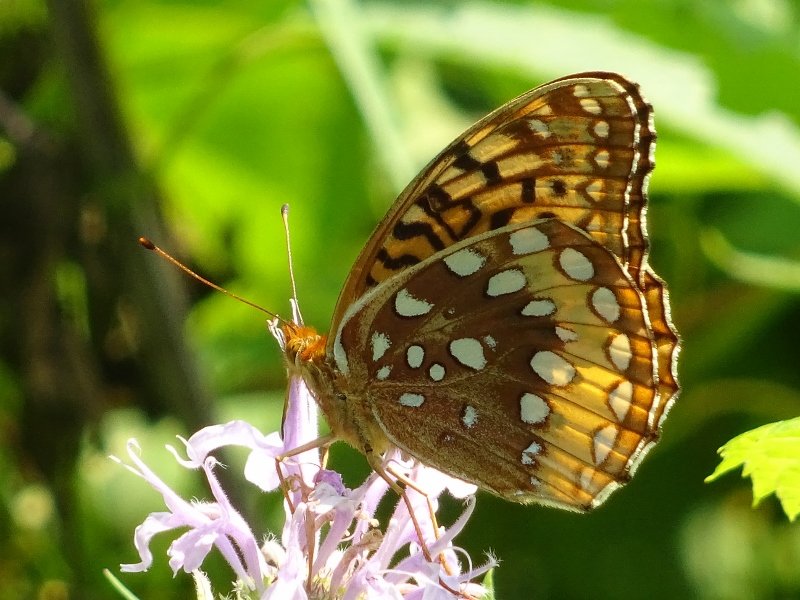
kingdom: Animalia
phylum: Arthropoda
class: Insecta
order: Lepidoptera
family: Nymphalidae
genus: Speyeria
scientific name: Speyeria cybele
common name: Great Spangled Fritillary
